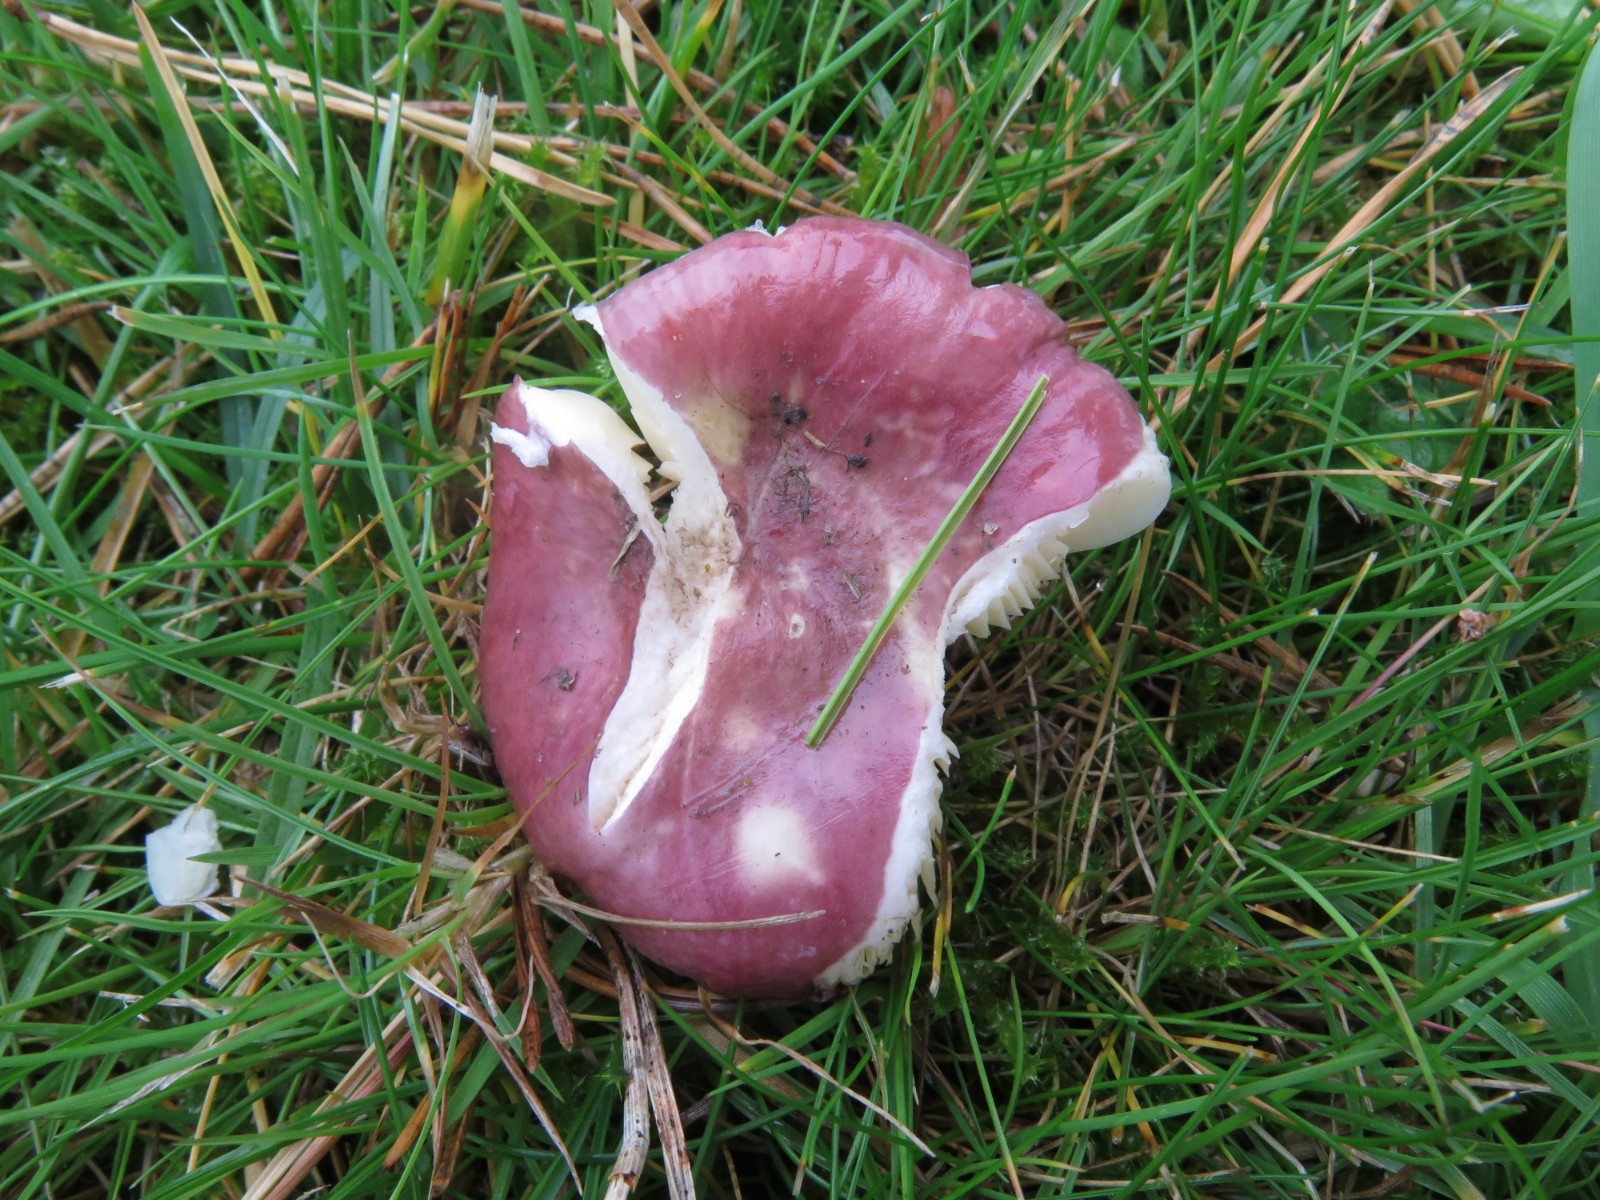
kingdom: Fungi
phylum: Basidiomycota
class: Agaricomycetes
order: Russulales
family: Russulaceae
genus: Russula
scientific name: Russula cessans
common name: fyrre-skørhat
